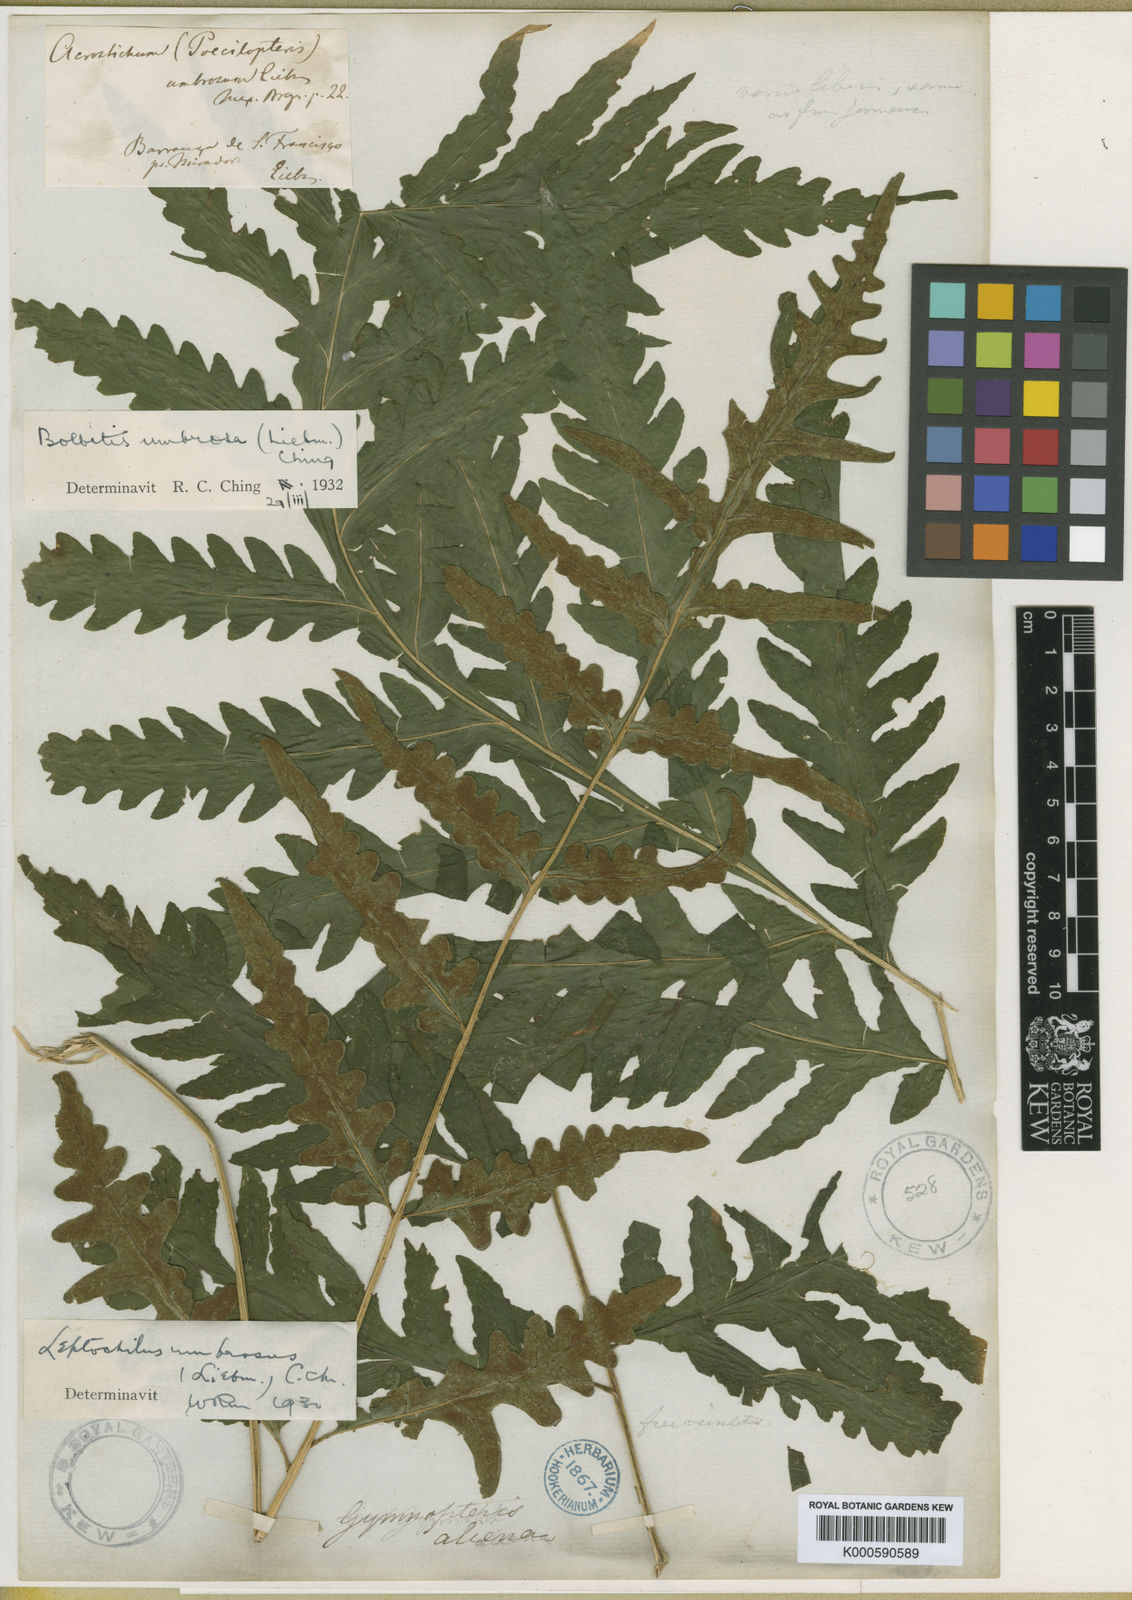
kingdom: Plantae
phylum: Tracheophyta
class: Polypodiopsida
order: Polypodiales
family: Dryopteridaceae
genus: Bolbitis
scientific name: Bolbitis umbrosa
